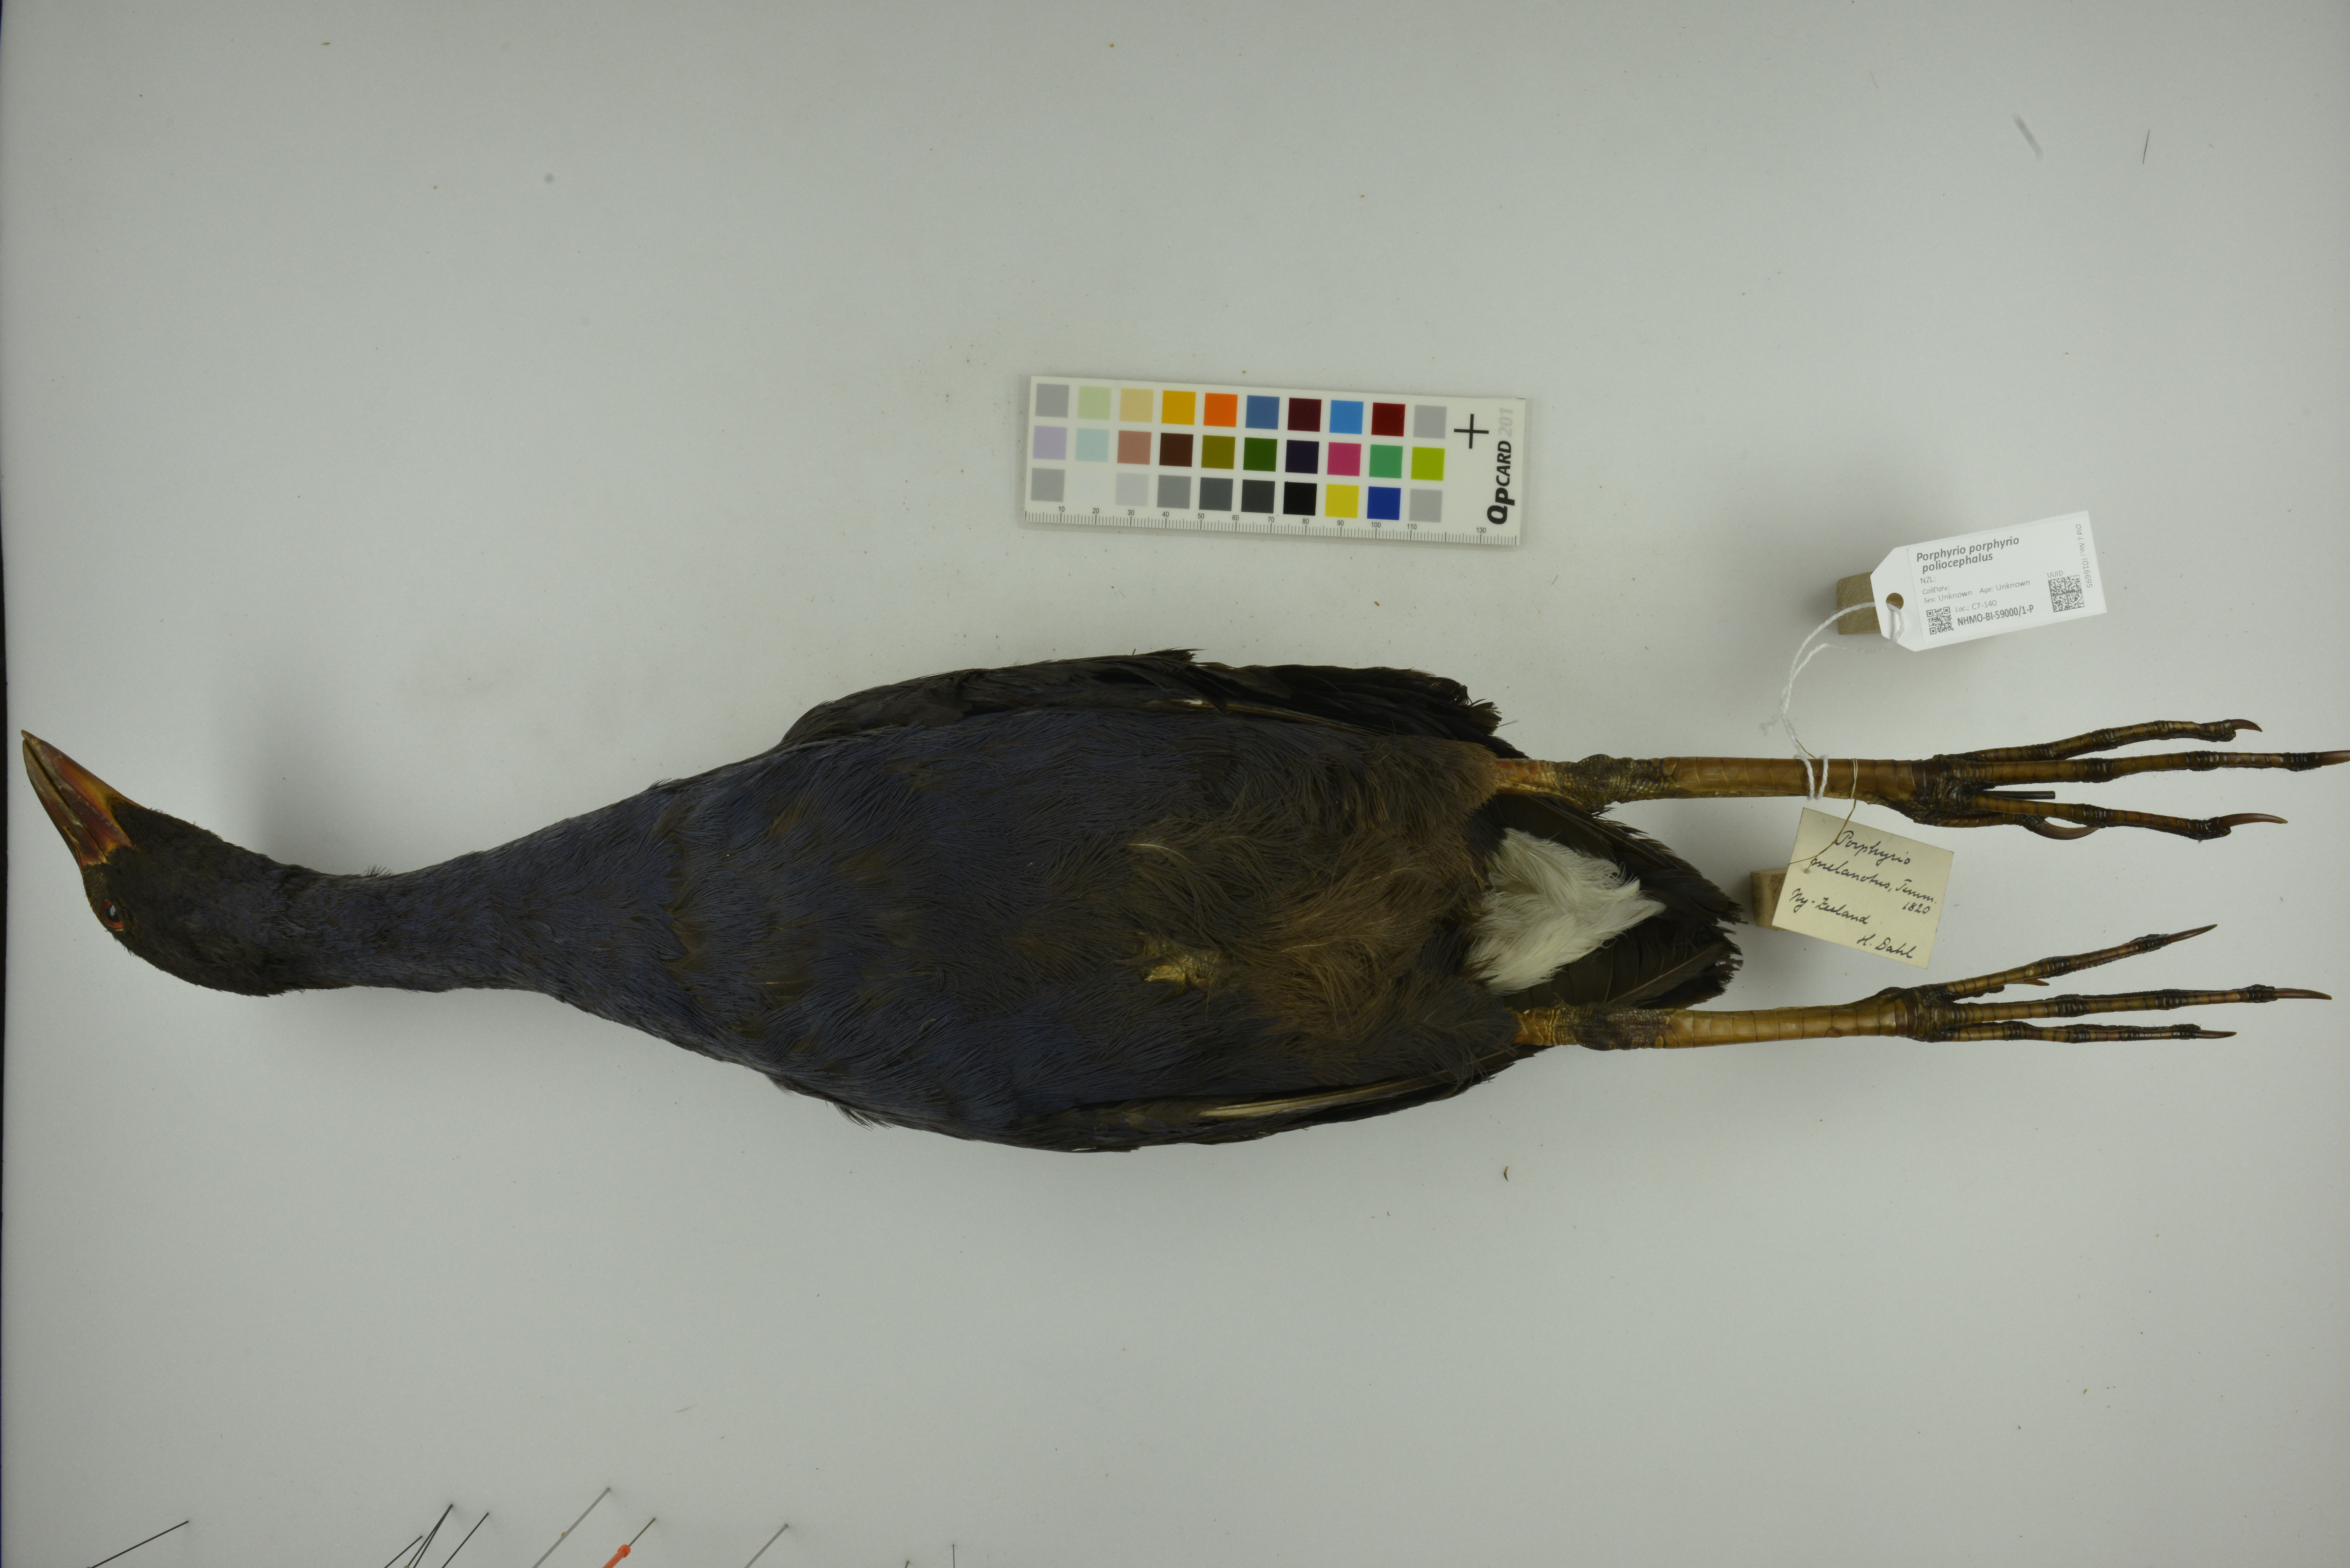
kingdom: Animalia
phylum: Chordata
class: Aves
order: Gruiformes
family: Rallidae
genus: Porphyrio
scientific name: Porphyrio porphyrio
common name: Purple swamphen
